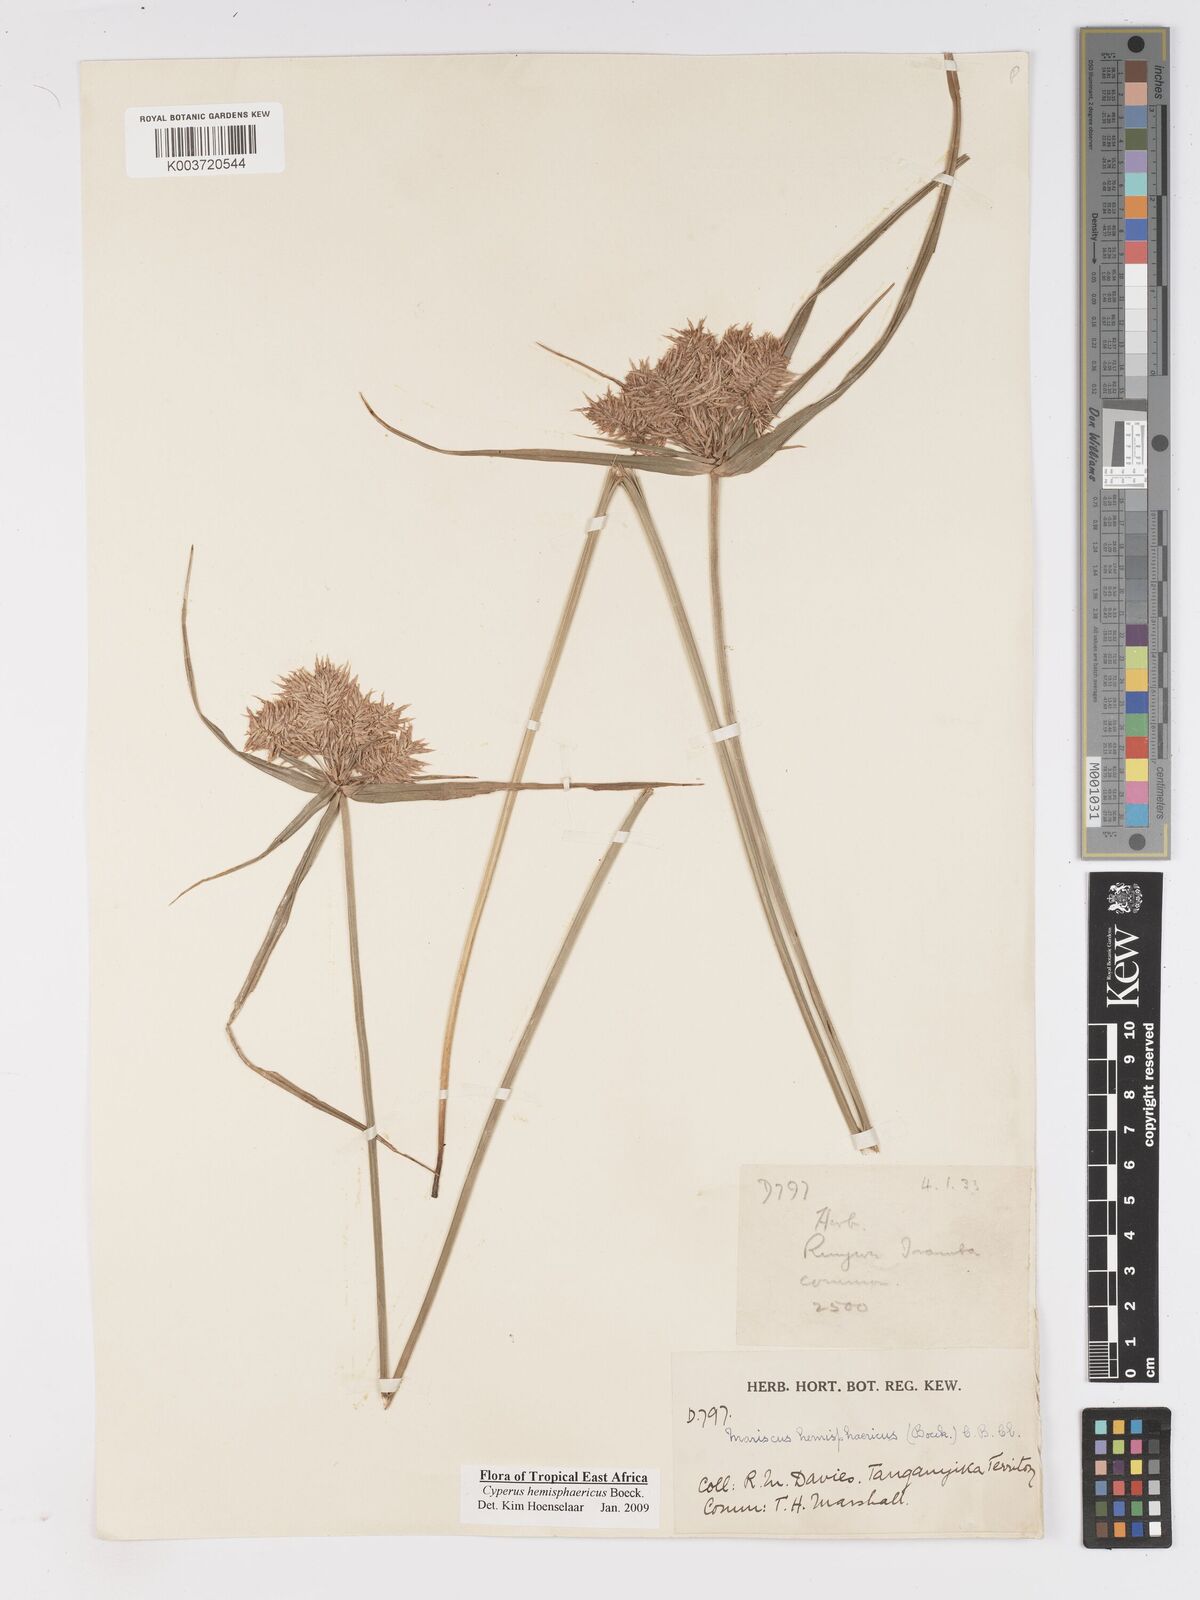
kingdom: Plantae
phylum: Tracheophyta
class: Liliopsida
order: Poales
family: Cyperaceae
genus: Cyperus
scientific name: Cyperus hemisphaericus
